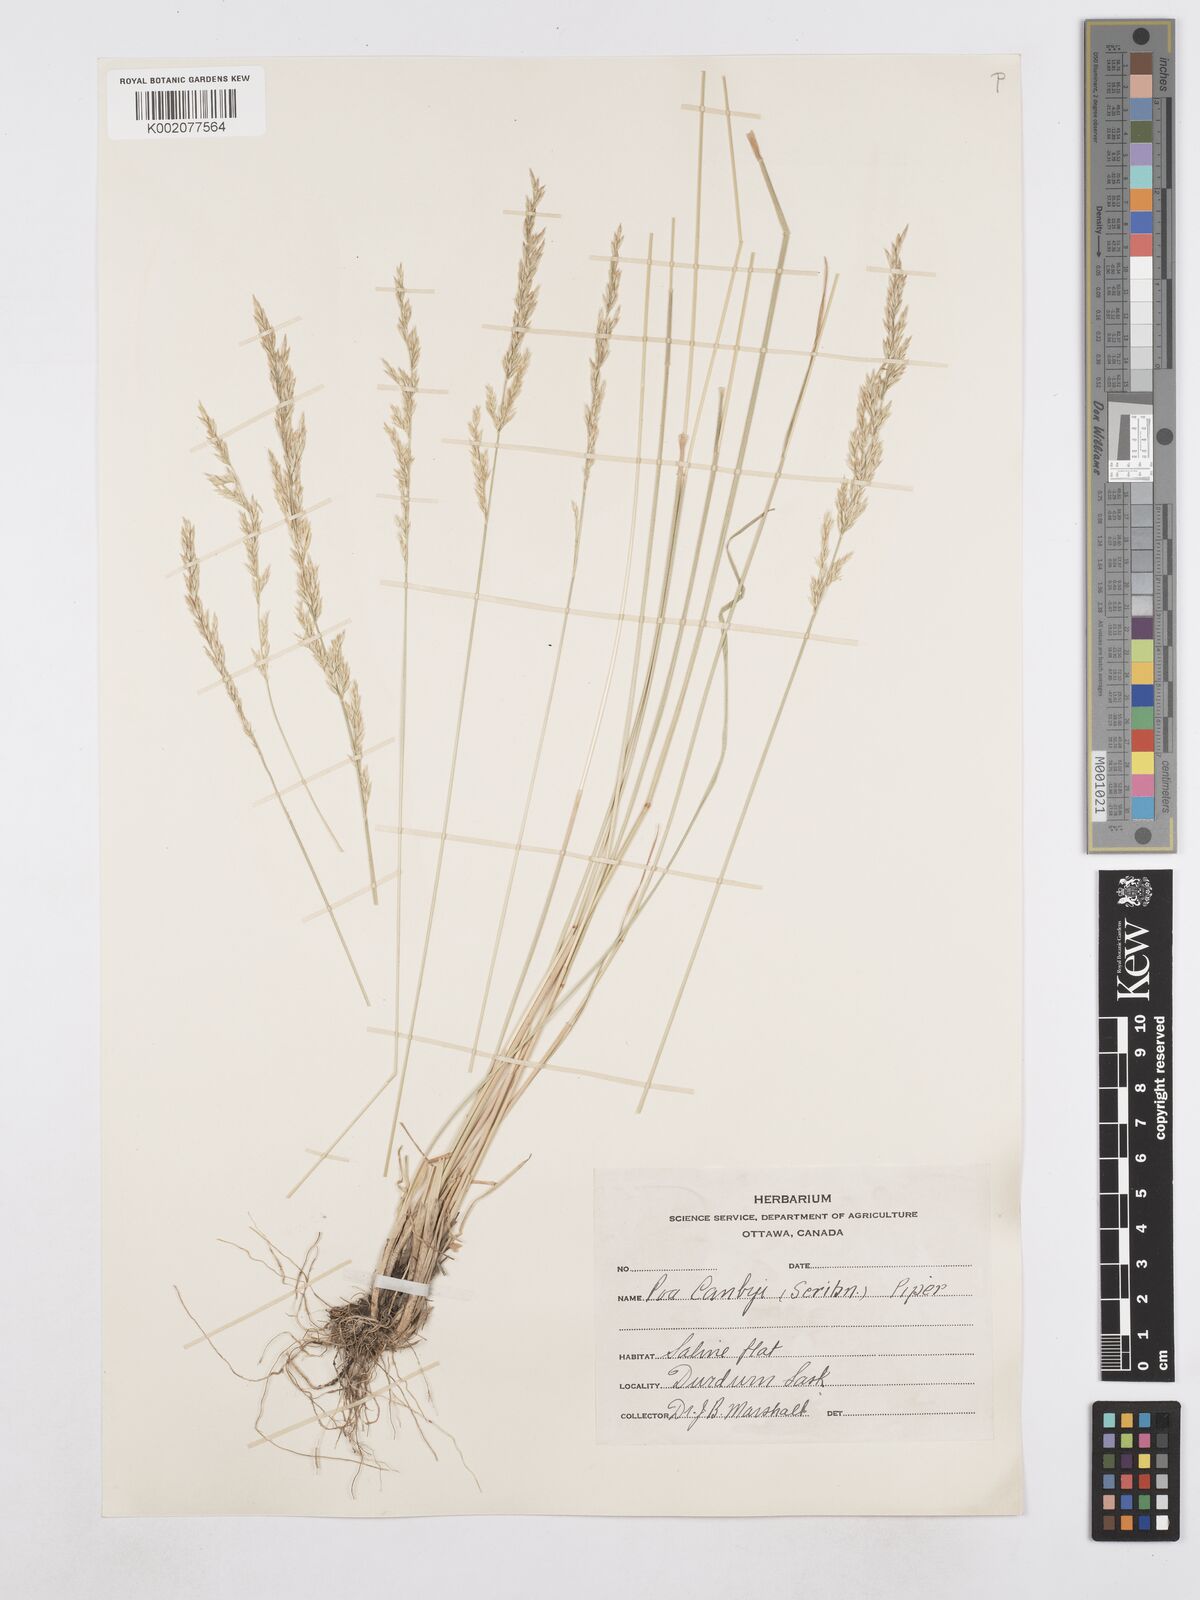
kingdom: Plantae
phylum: Tracheophyta
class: Liliopsida
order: Poales
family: Poaceae
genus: Poa
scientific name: Poa secunda
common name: Sandberg bluegrass
